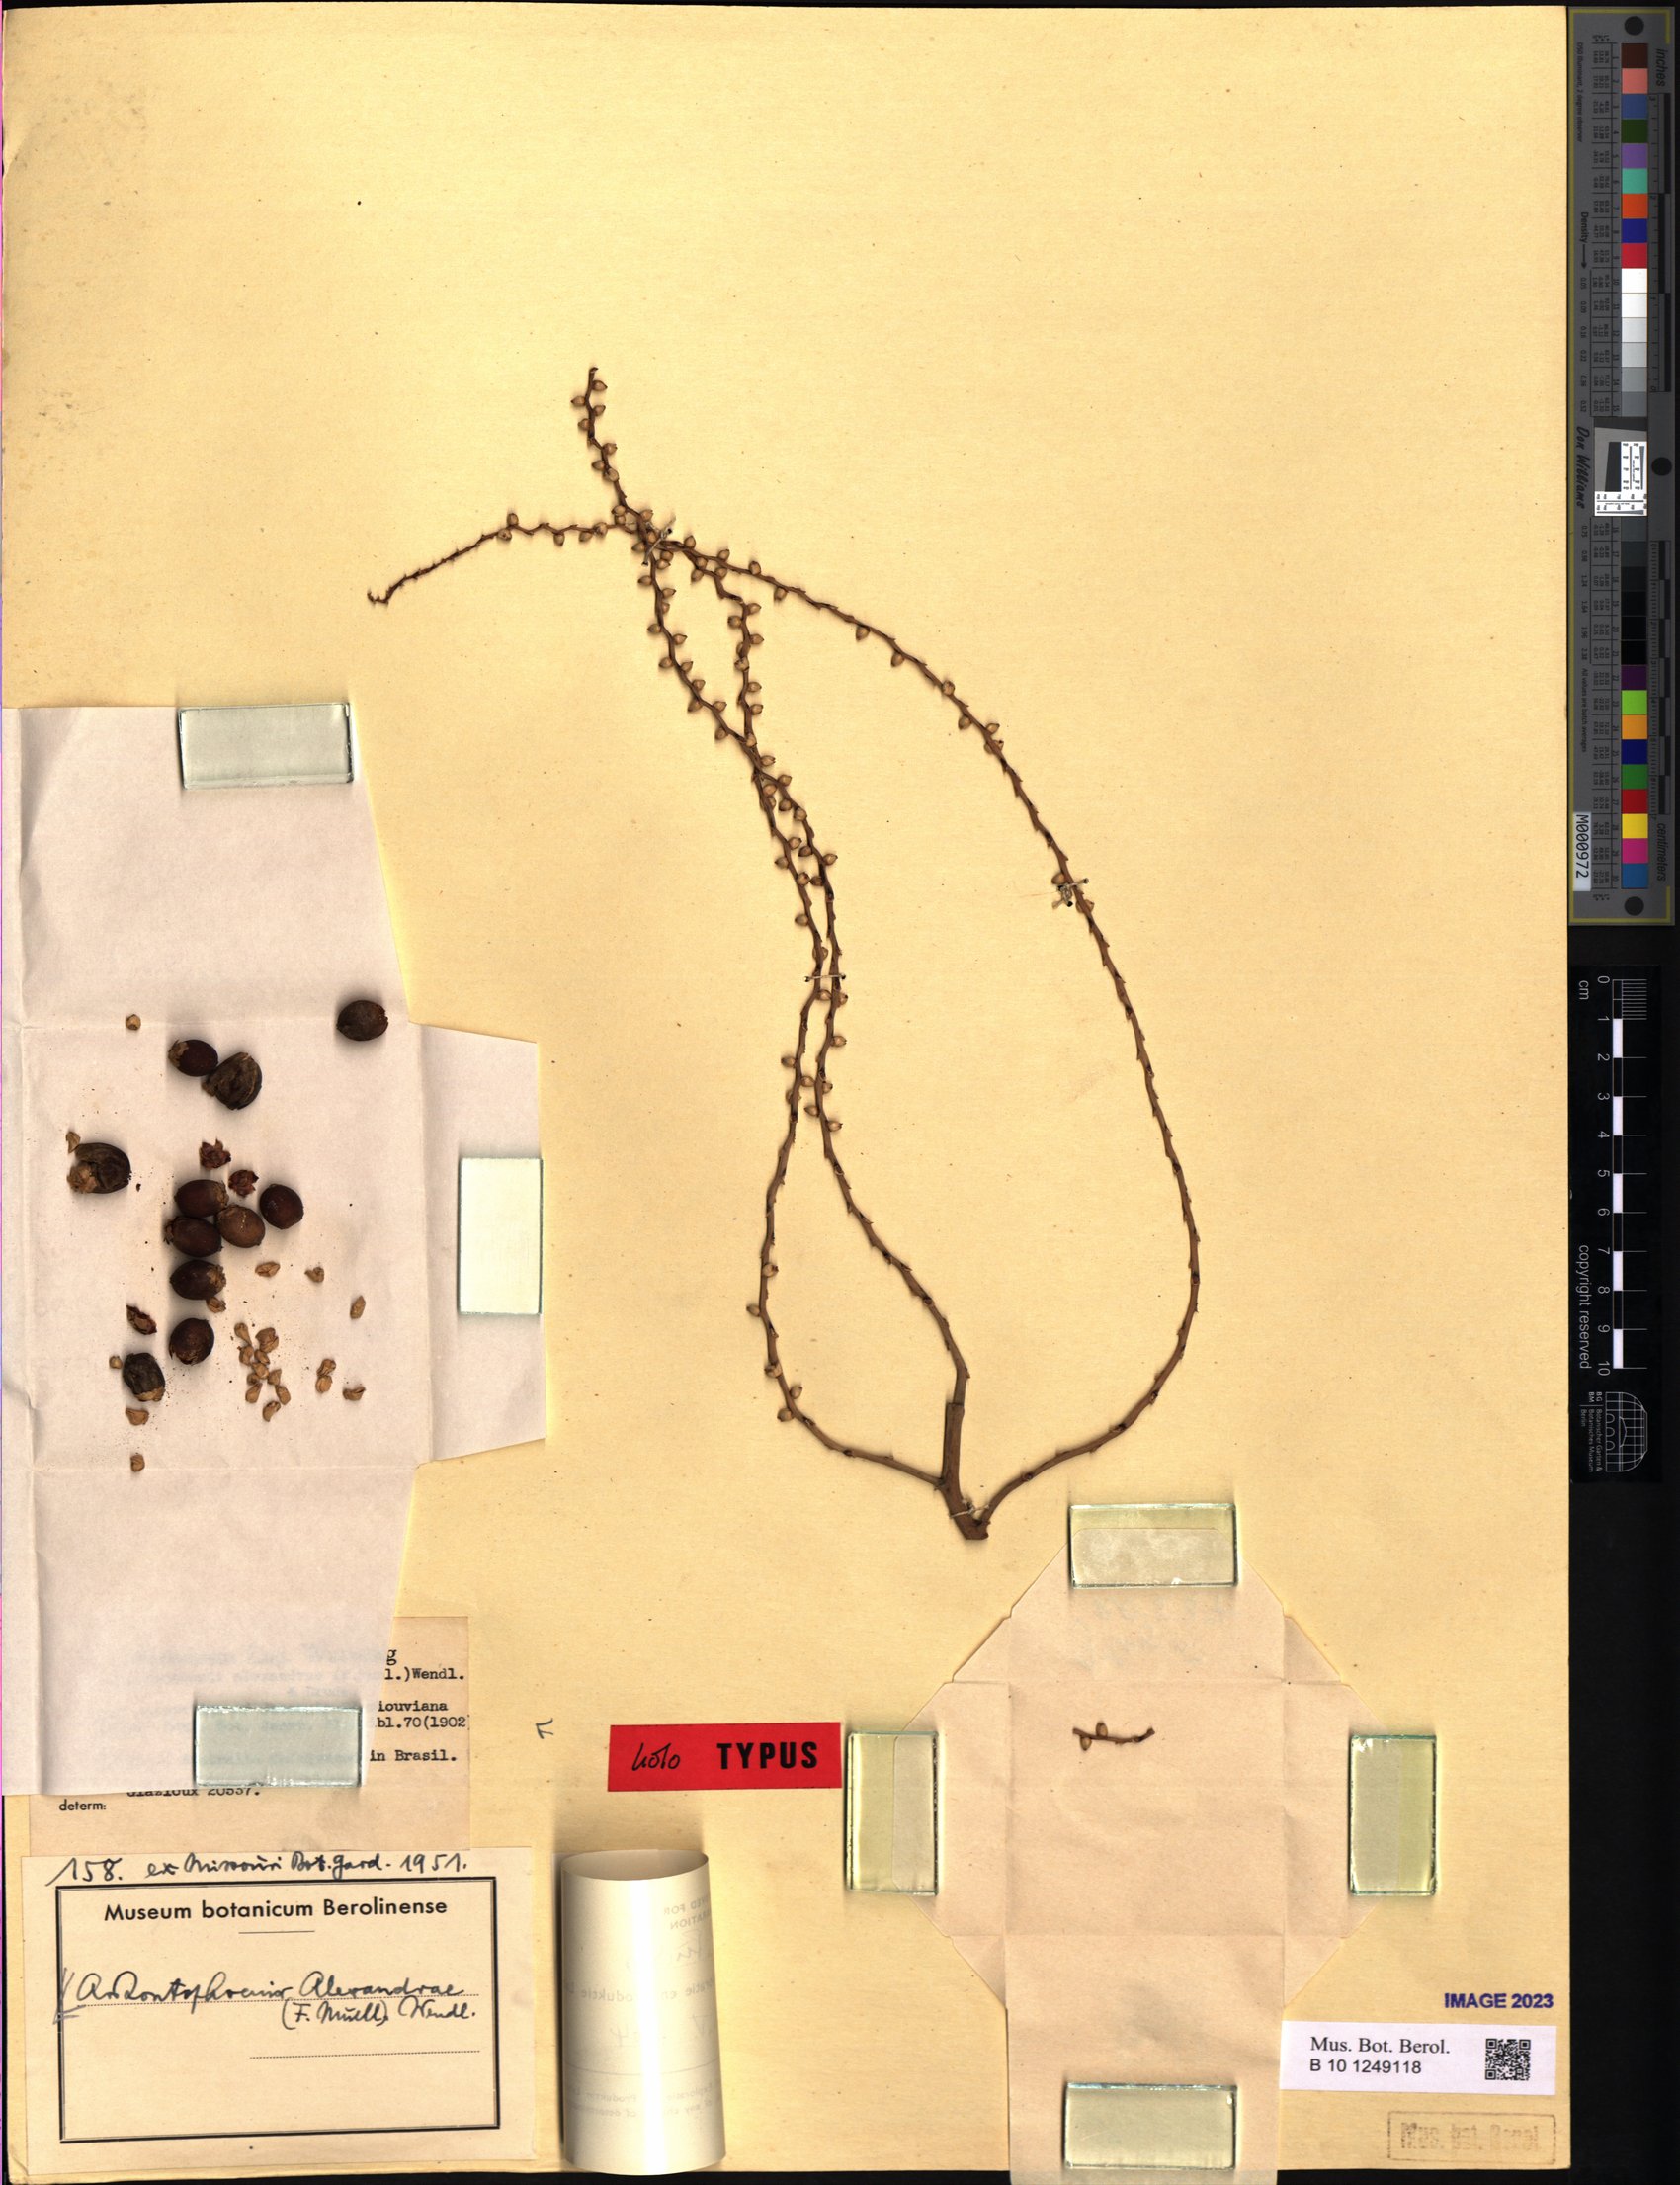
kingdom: Plantae
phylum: Tracheophyta
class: Liliopsida
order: Arecales
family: Arecaceae
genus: Archontophoenix
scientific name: Archontophoenix alexandrae
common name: Alexandra palm
